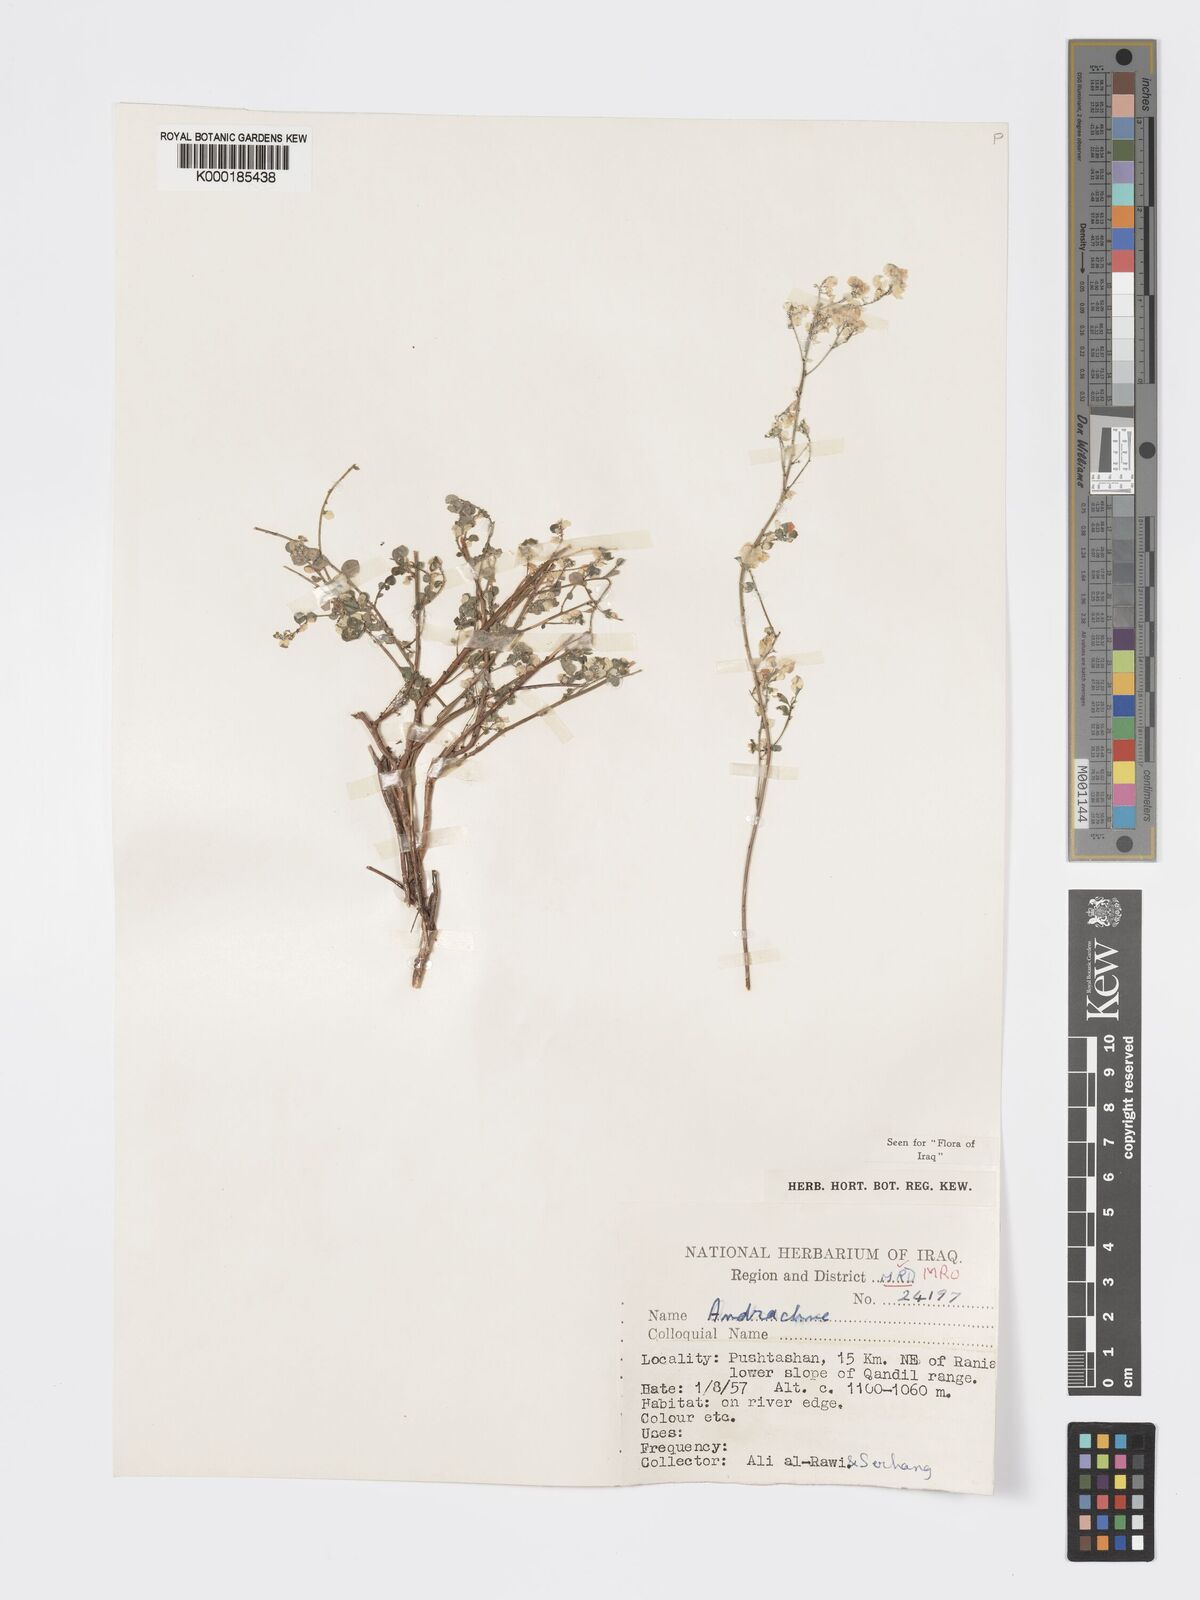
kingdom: Plantae
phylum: Tracheophyta
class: Magnoliopsida
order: Malpighiales
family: Phyllanthaceae
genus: Andrachne
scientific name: Andrachne telephioides
